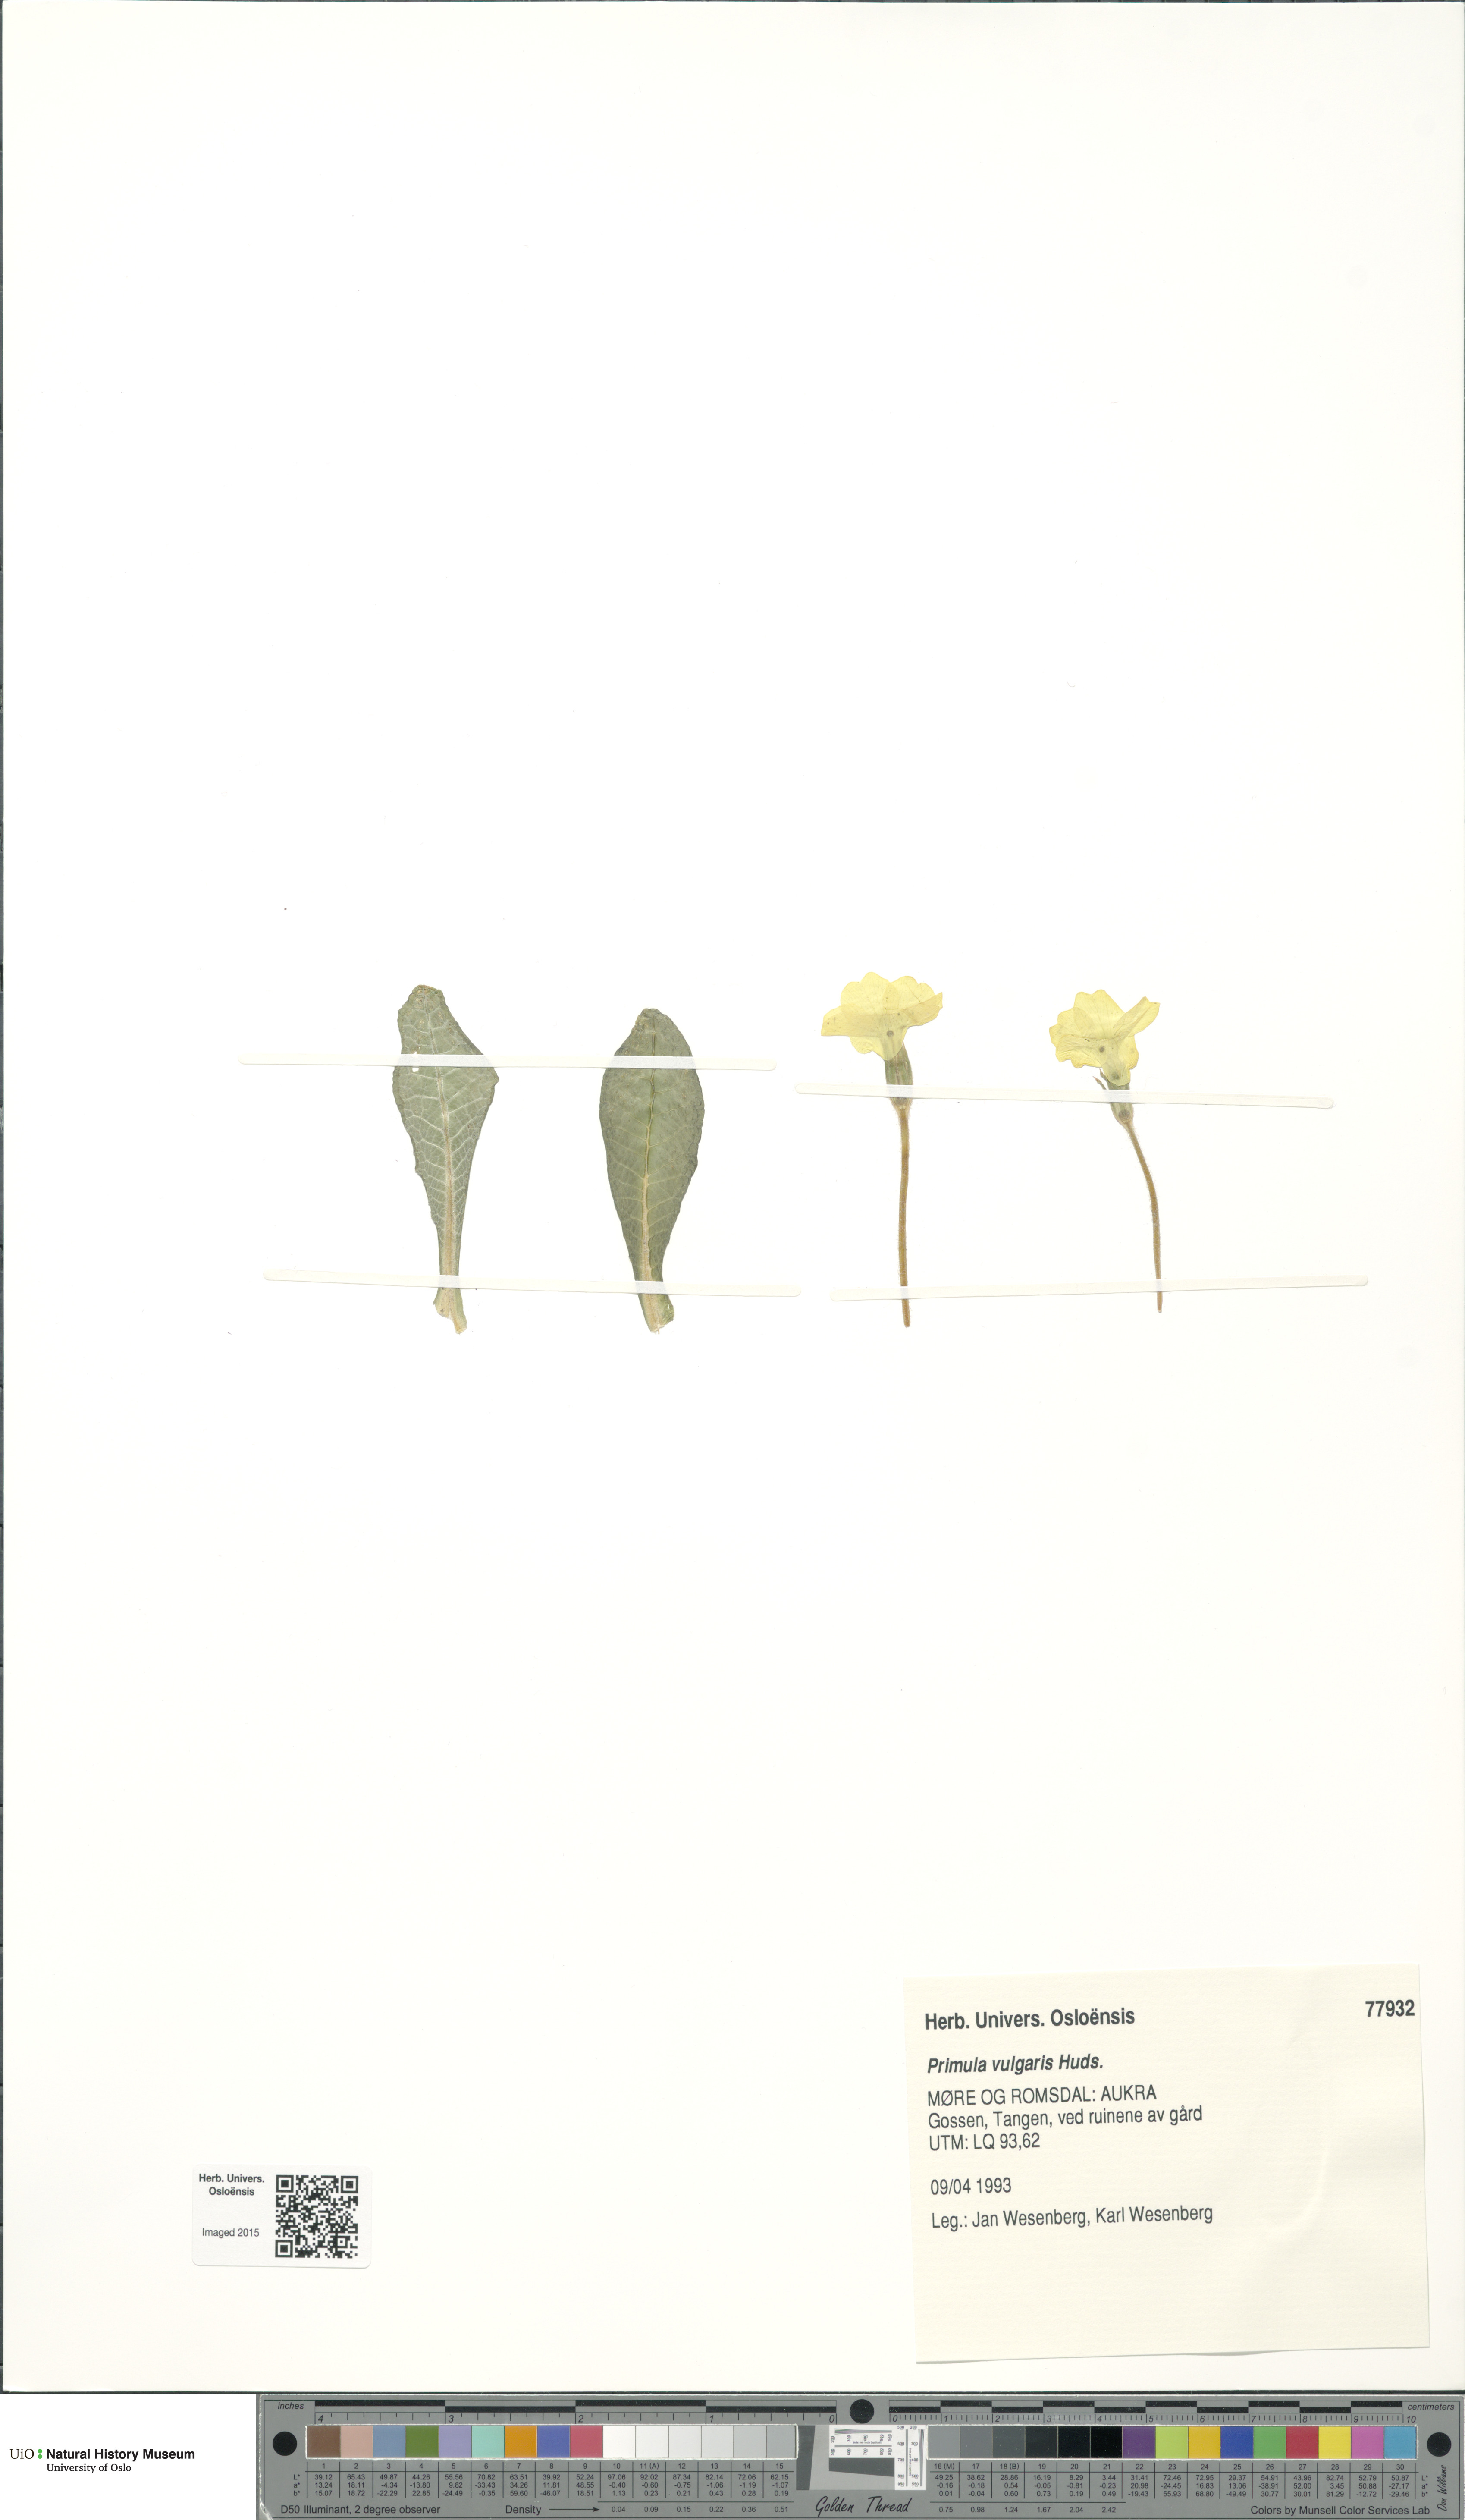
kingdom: Plantae
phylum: Tracheophyta
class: Magnoliopsida
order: Ericales
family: Primulaceae
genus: Primula
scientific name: Primula vulgaris
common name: Primrose
